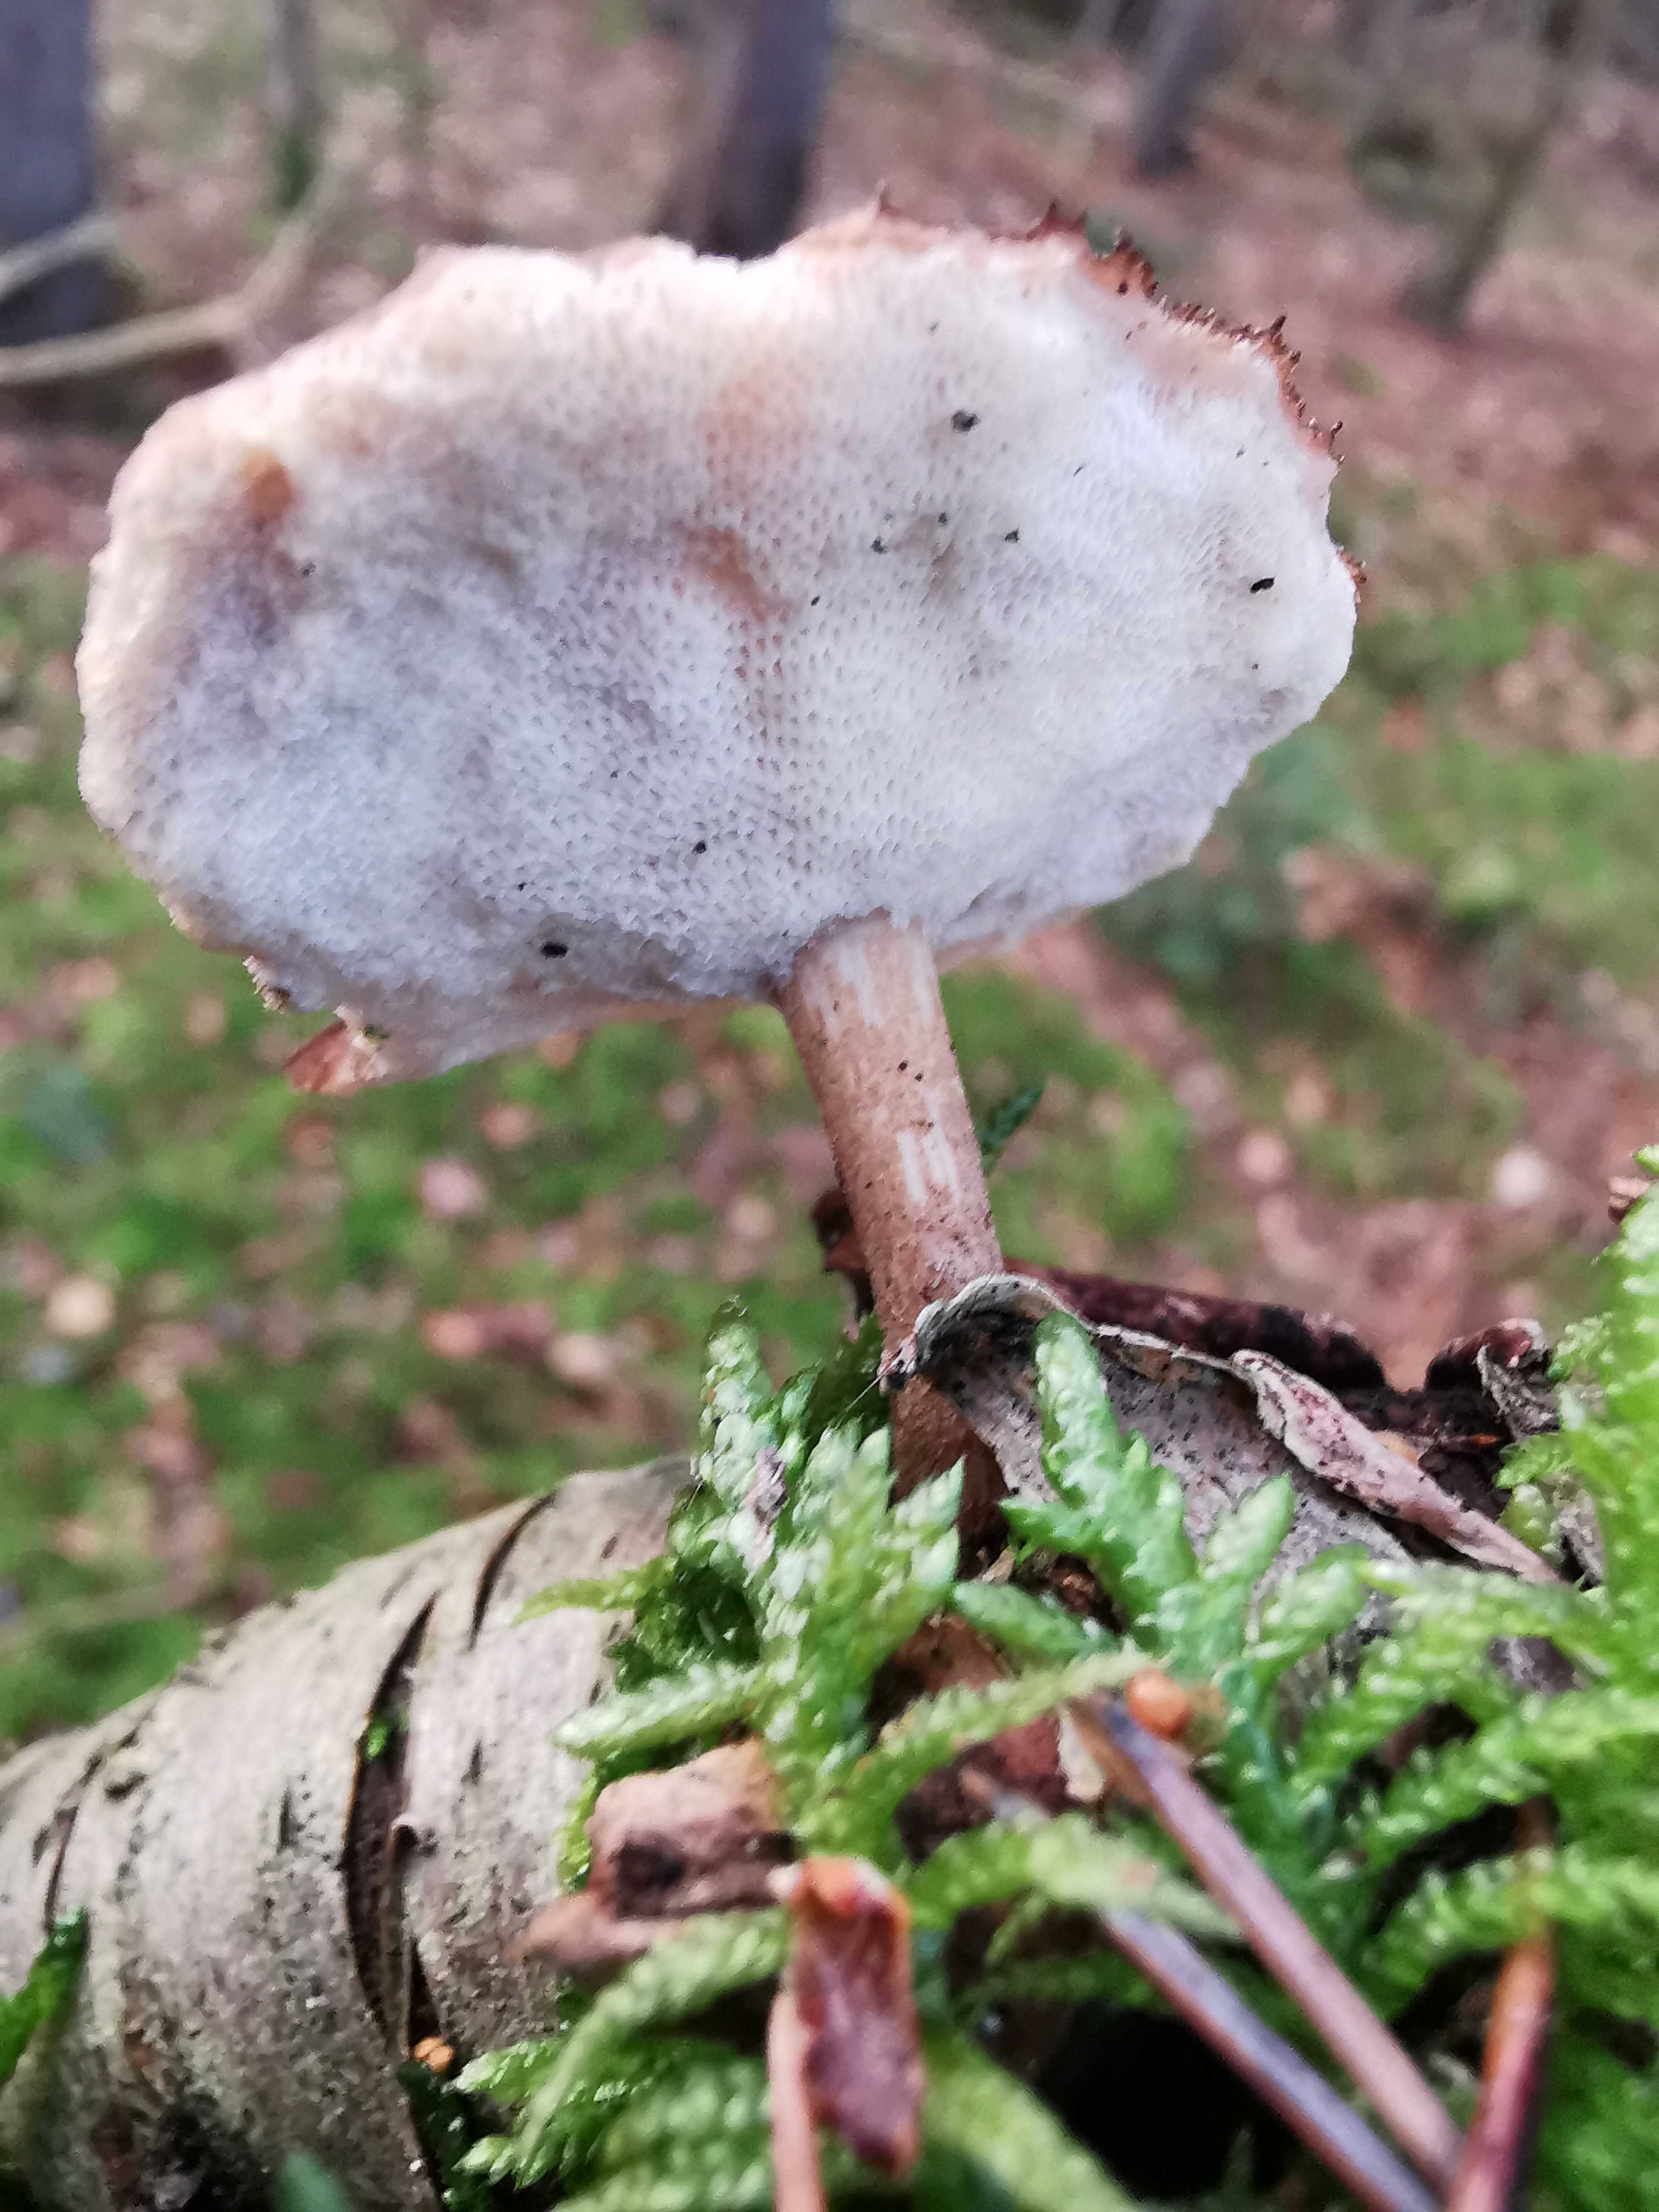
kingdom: Fungi
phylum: Basidiomycota
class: Agaricomycetes
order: Polyporales
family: Polyporaceae
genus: Lentinus
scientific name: Lentinus brumalis
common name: vinter-stilkporesvamp
